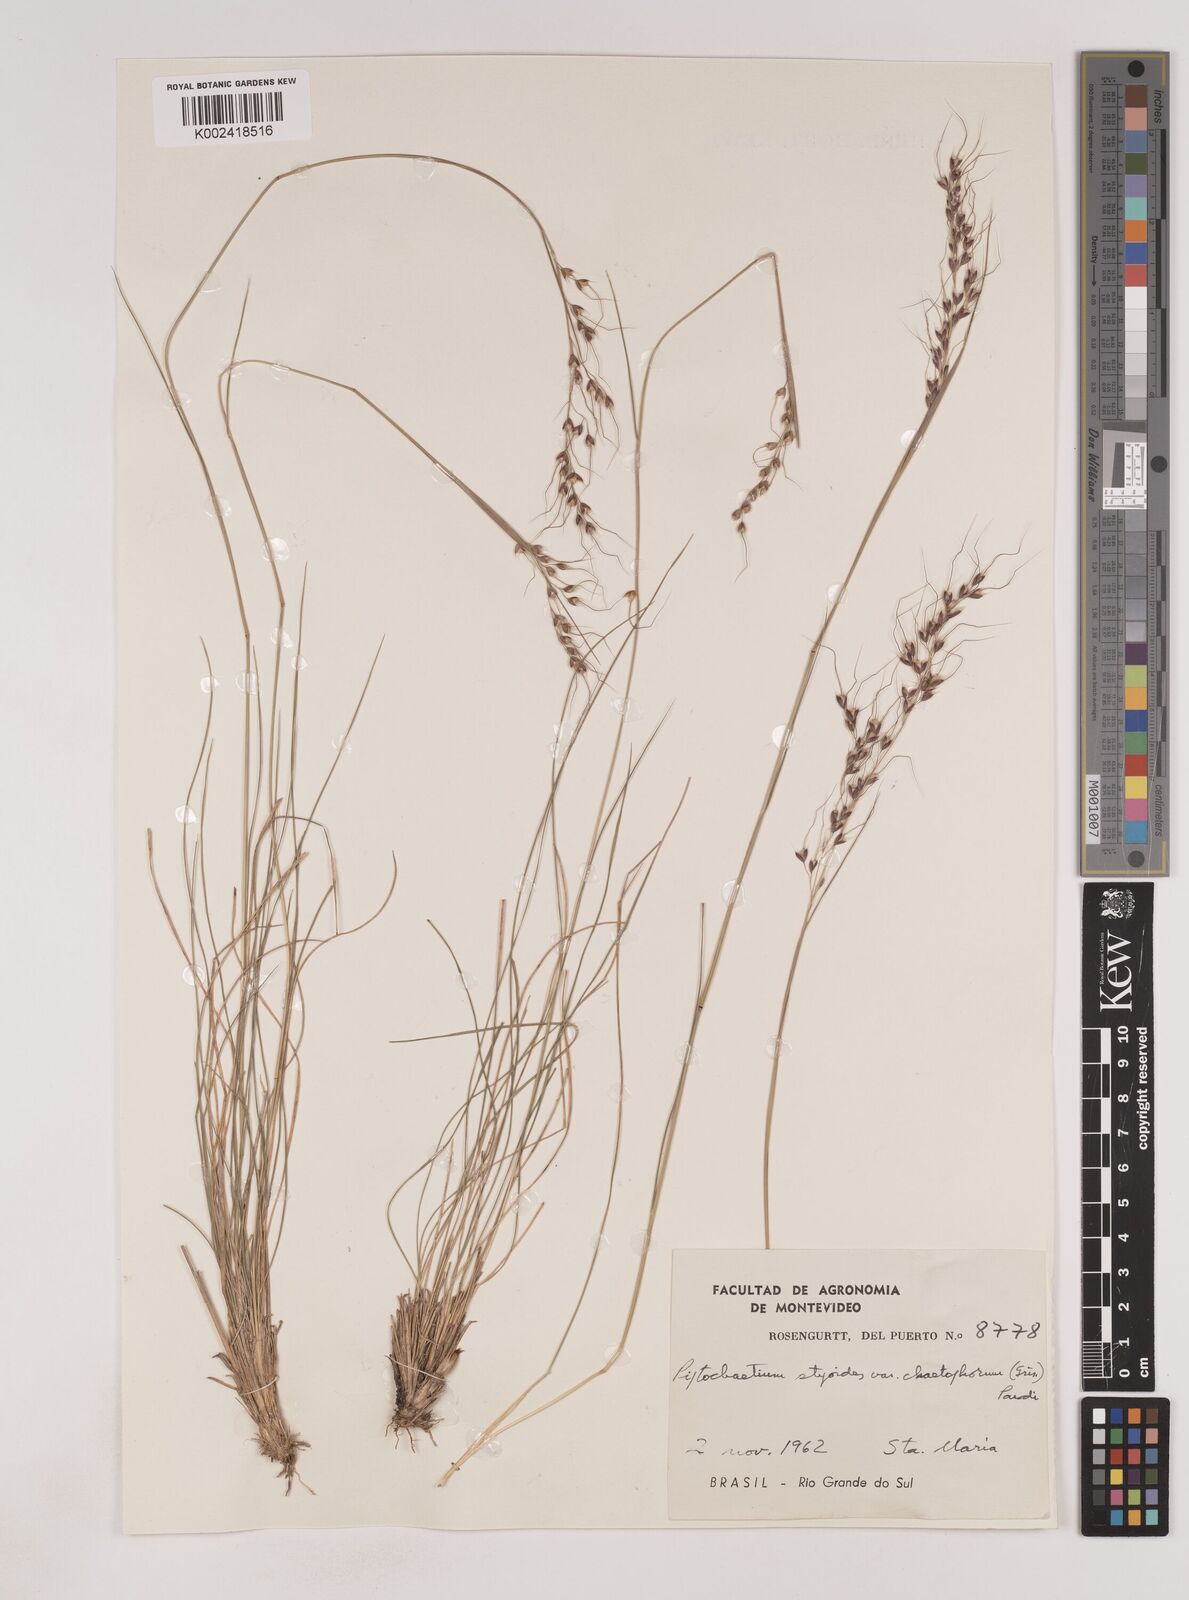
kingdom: Plantae
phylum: Tracheophyta
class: Liliopsida
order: Poales
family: Poaceae
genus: Piptochaetium
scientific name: Piptochaetium stipoides
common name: Purple speargrass
